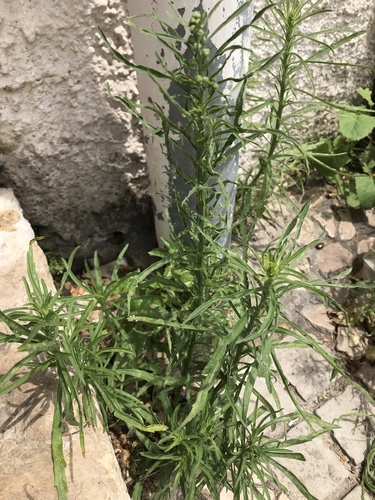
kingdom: Plantae
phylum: Tracheophyta
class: Magnoliopsida
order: Asterales
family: Asteraceae
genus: Erigeron
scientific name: Erigeron bonariensis
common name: Argentine fleabane
